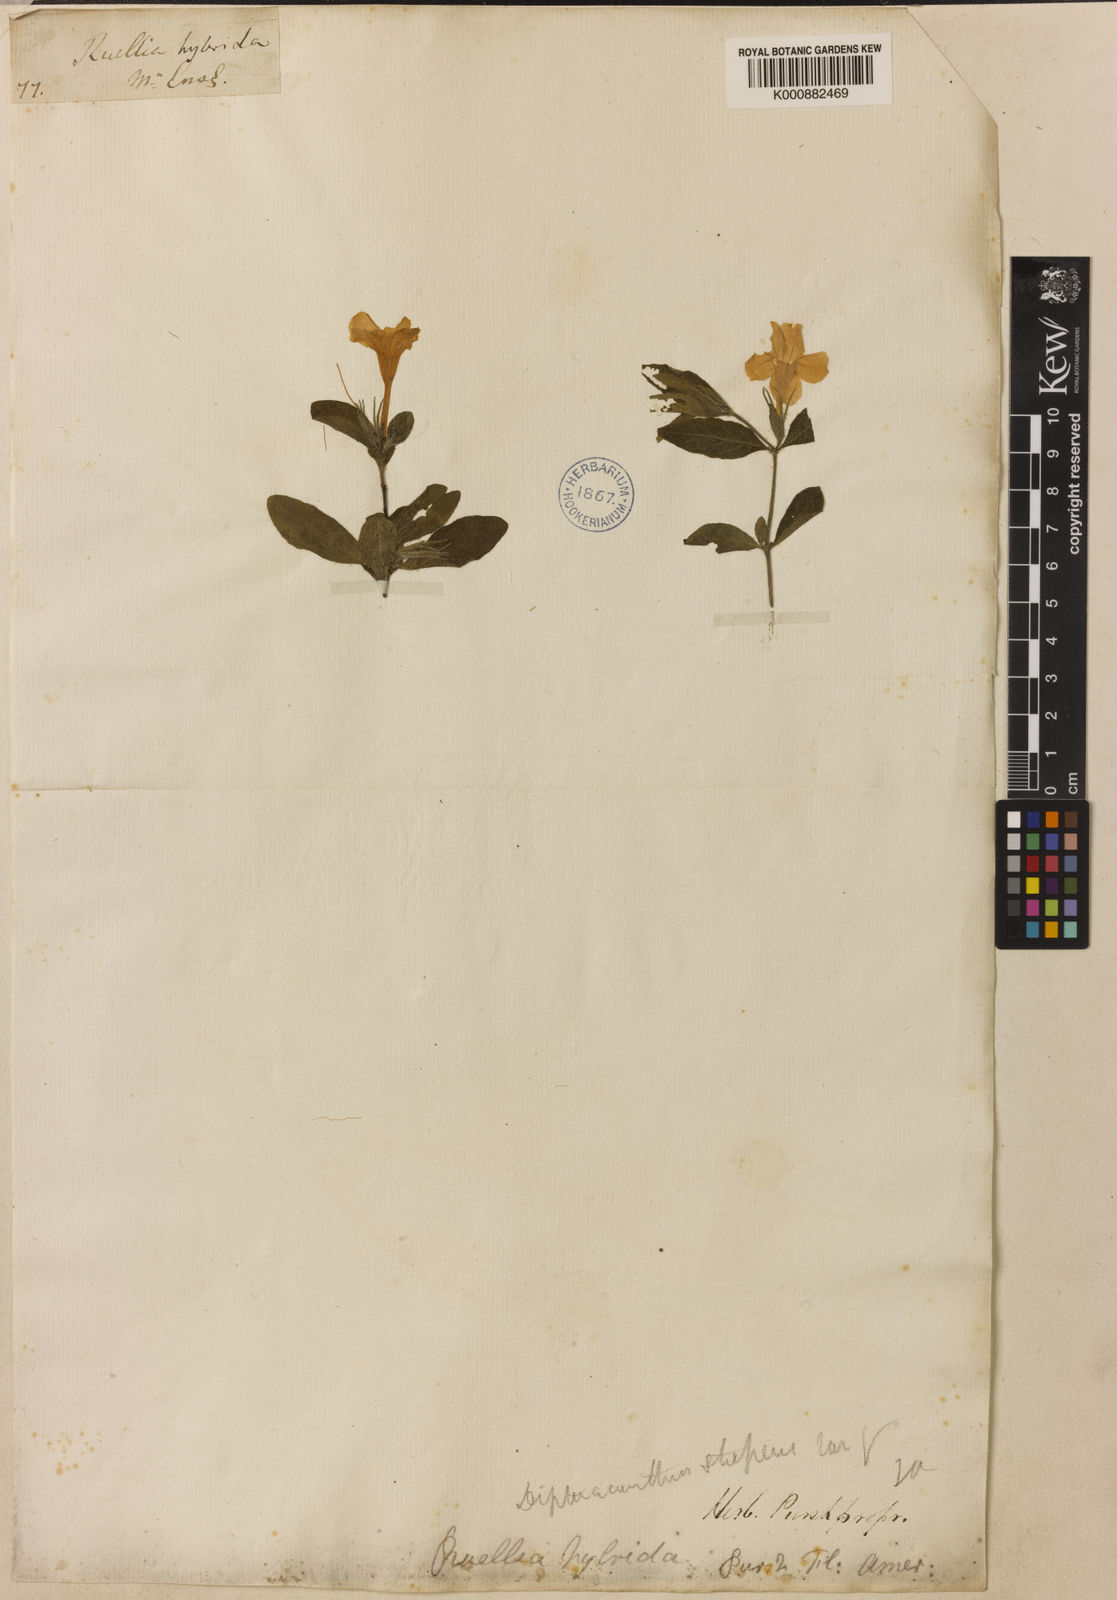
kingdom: Plantae
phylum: Tracheophyta
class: Magnoliopsida
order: Lamiales
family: Acanthaceae
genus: Ruellia
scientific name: Ruellia caroliniensis
